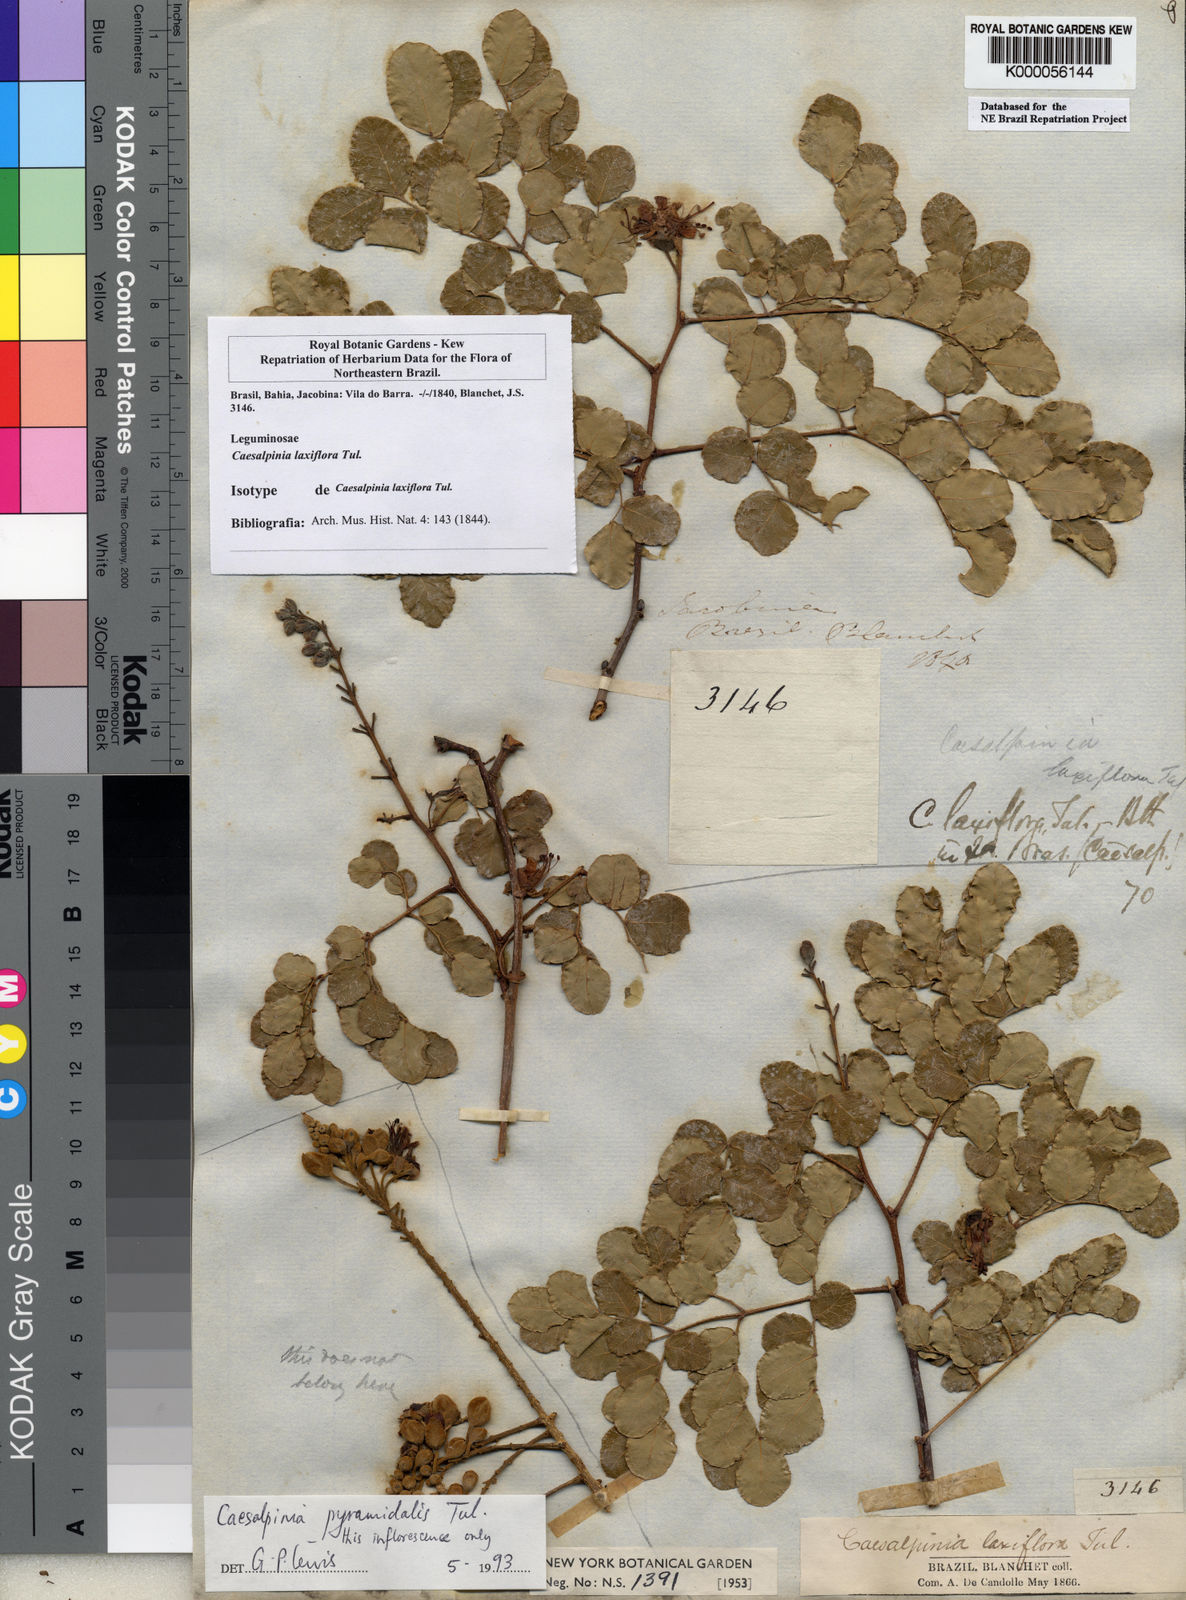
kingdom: Plantae
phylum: Tracheophyta
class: Magnoliopsida
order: Fabales
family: Fabaceae
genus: Cenostigma
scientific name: Cenostigma laxiflorum
